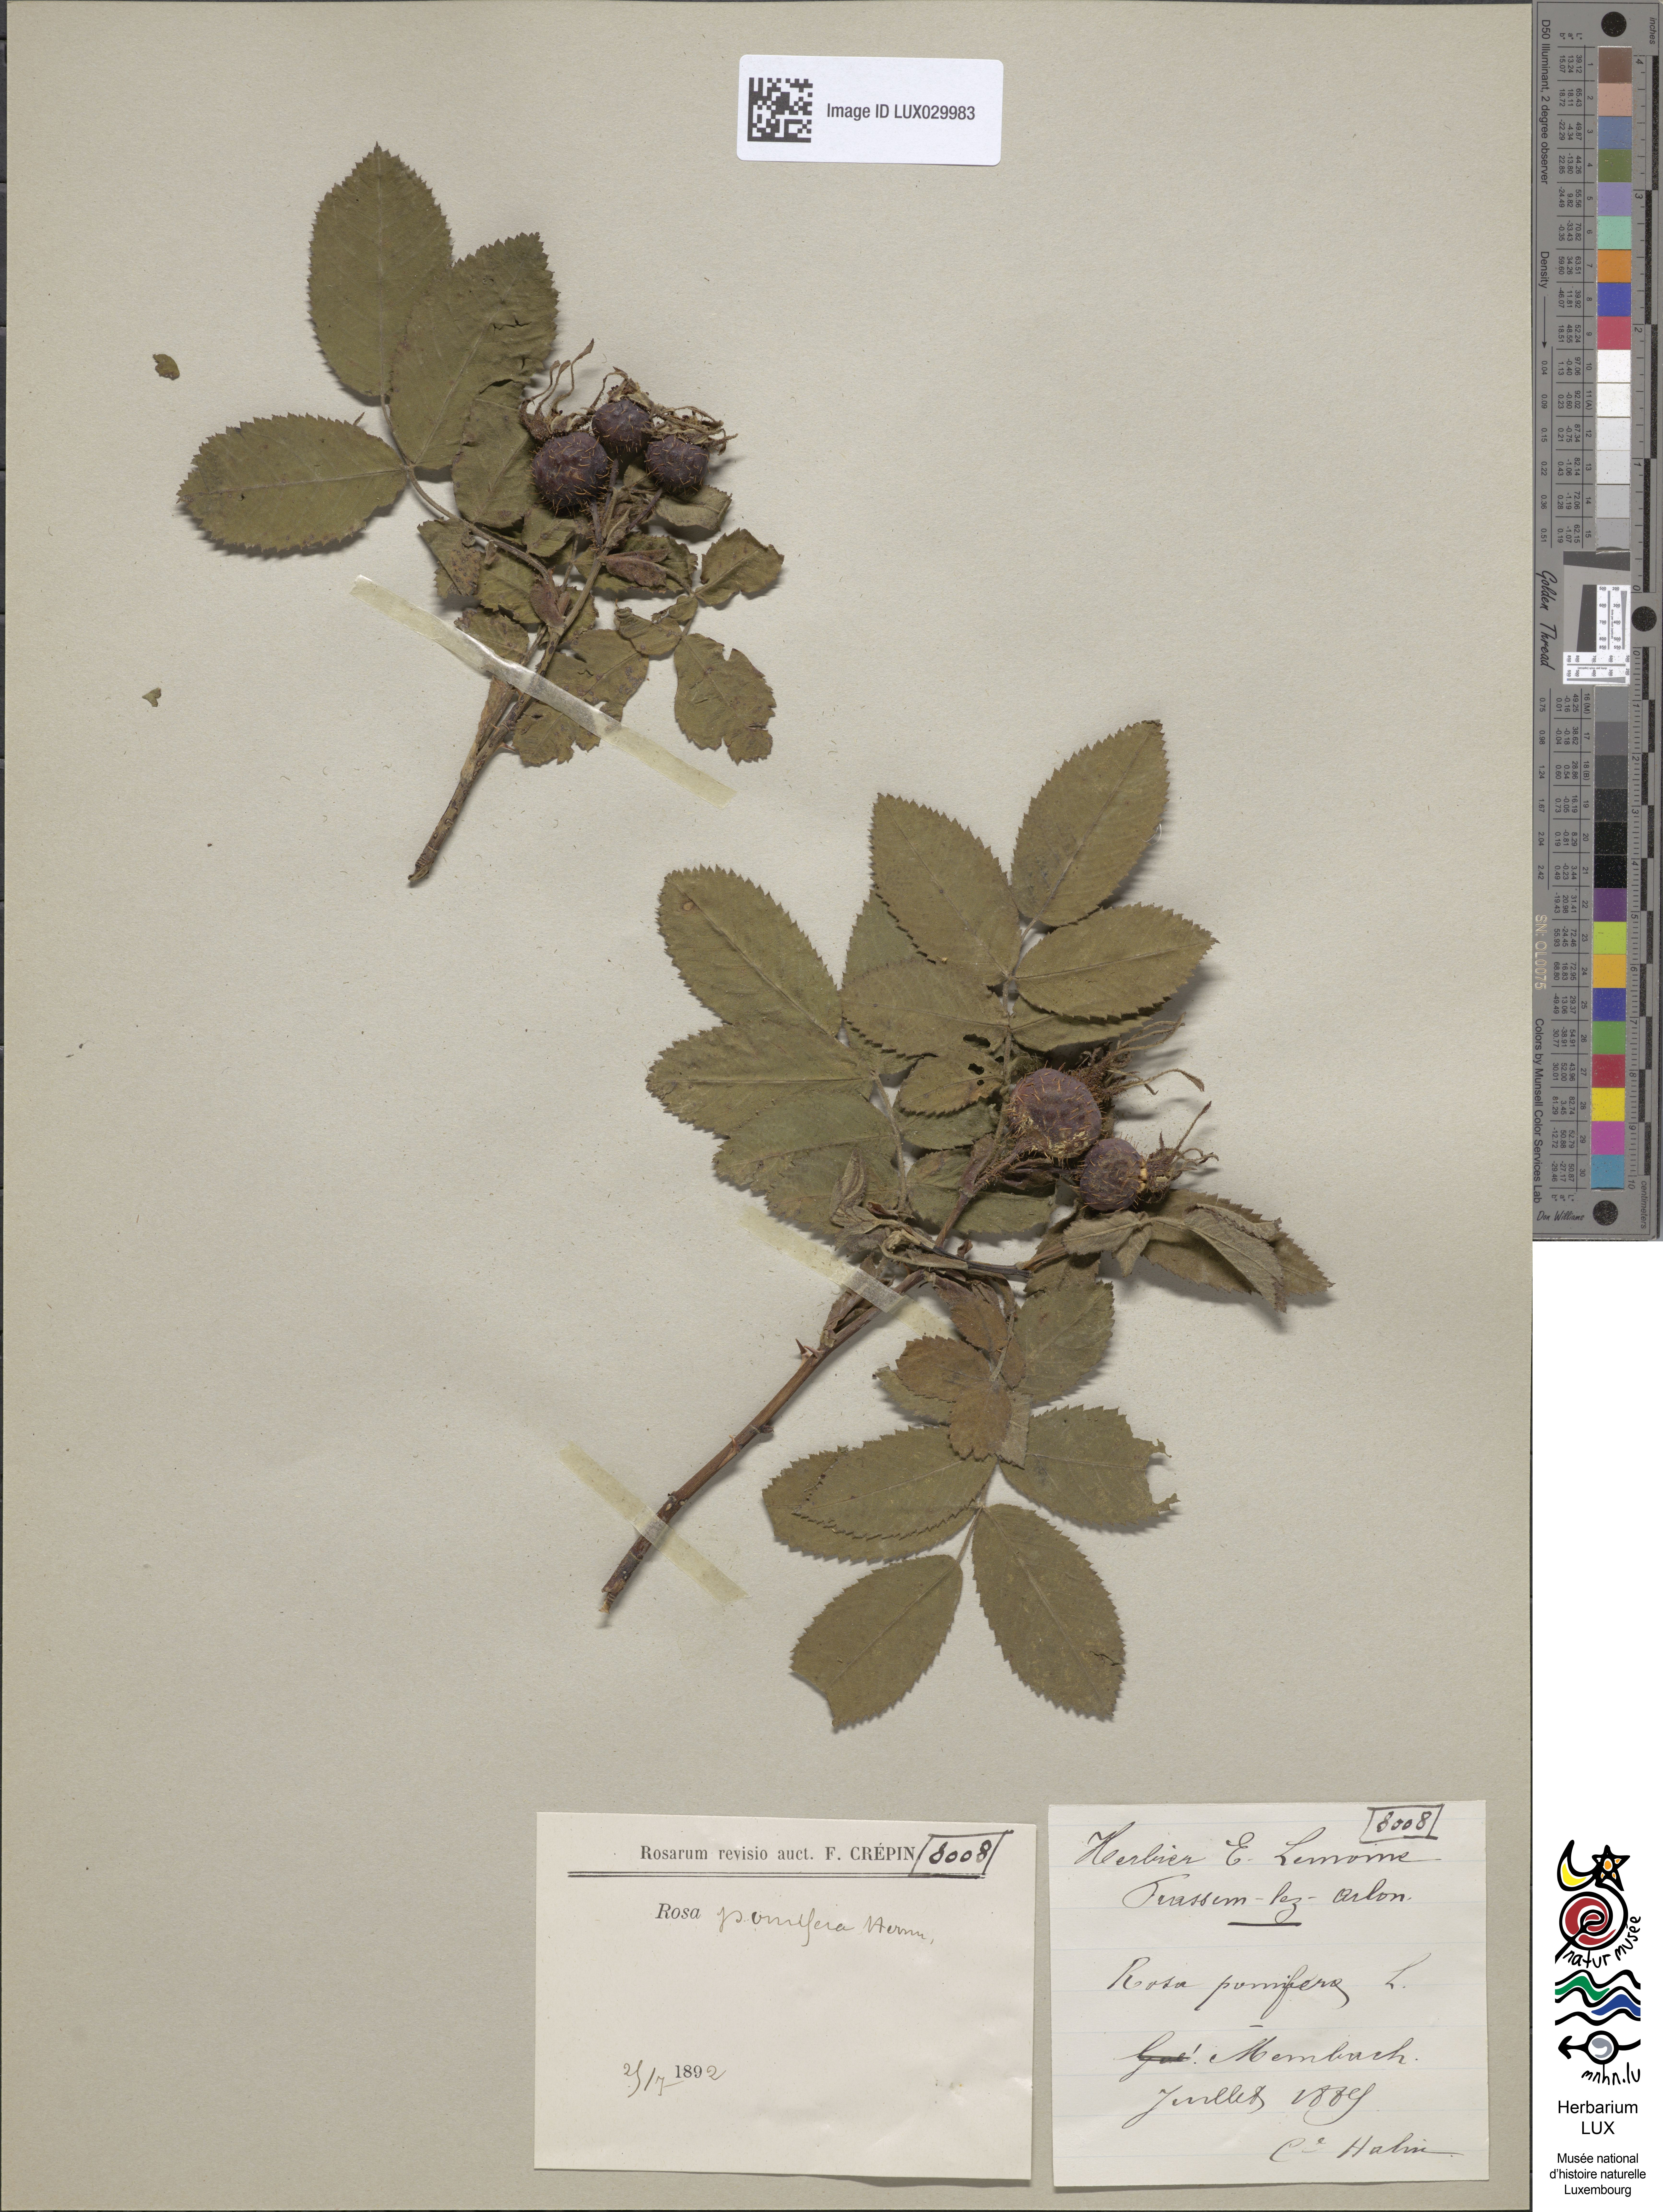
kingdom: Plantae
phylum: Tracheophyta
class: Magnoliopsida
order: Rosales
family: Rosaceae
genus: Rosa
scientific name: Rosa villosa
